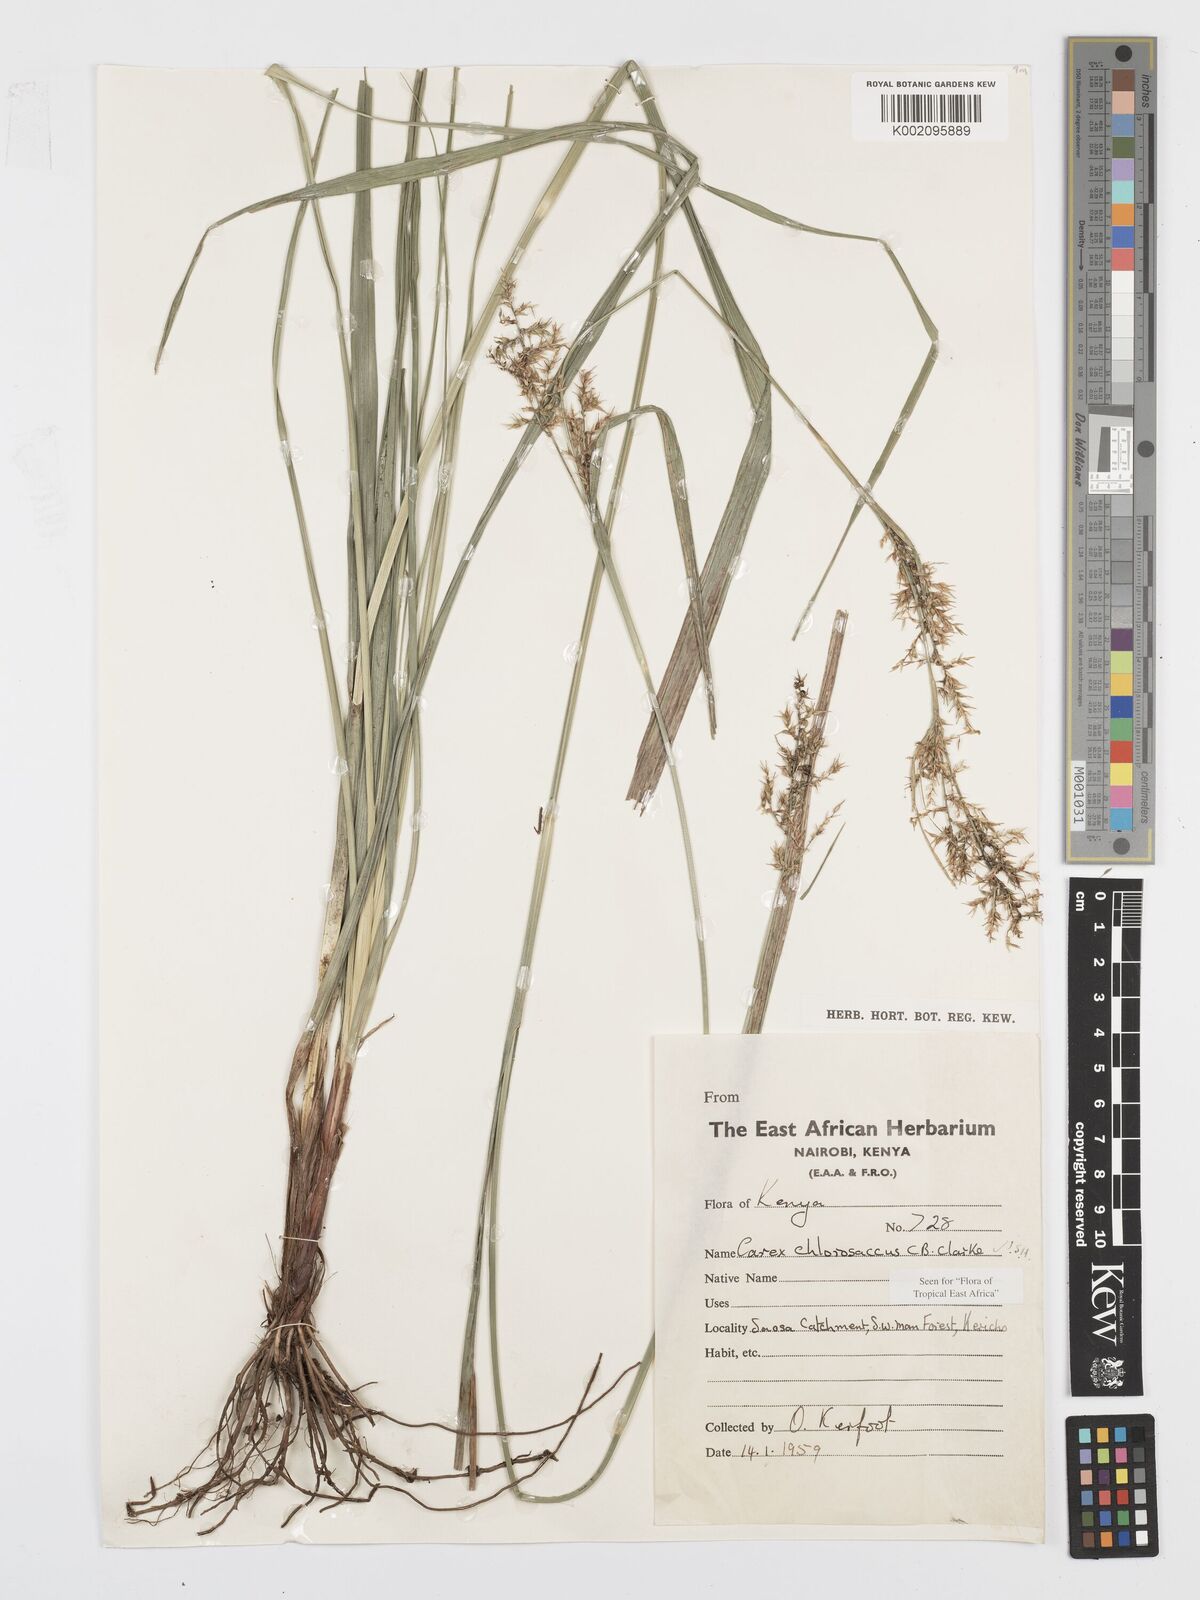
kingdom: Plantae
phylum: Tracheophyta
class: Liliopsida
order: Poales
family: Cyperaceae
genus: Carex
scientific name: Carex chlorosaccus
